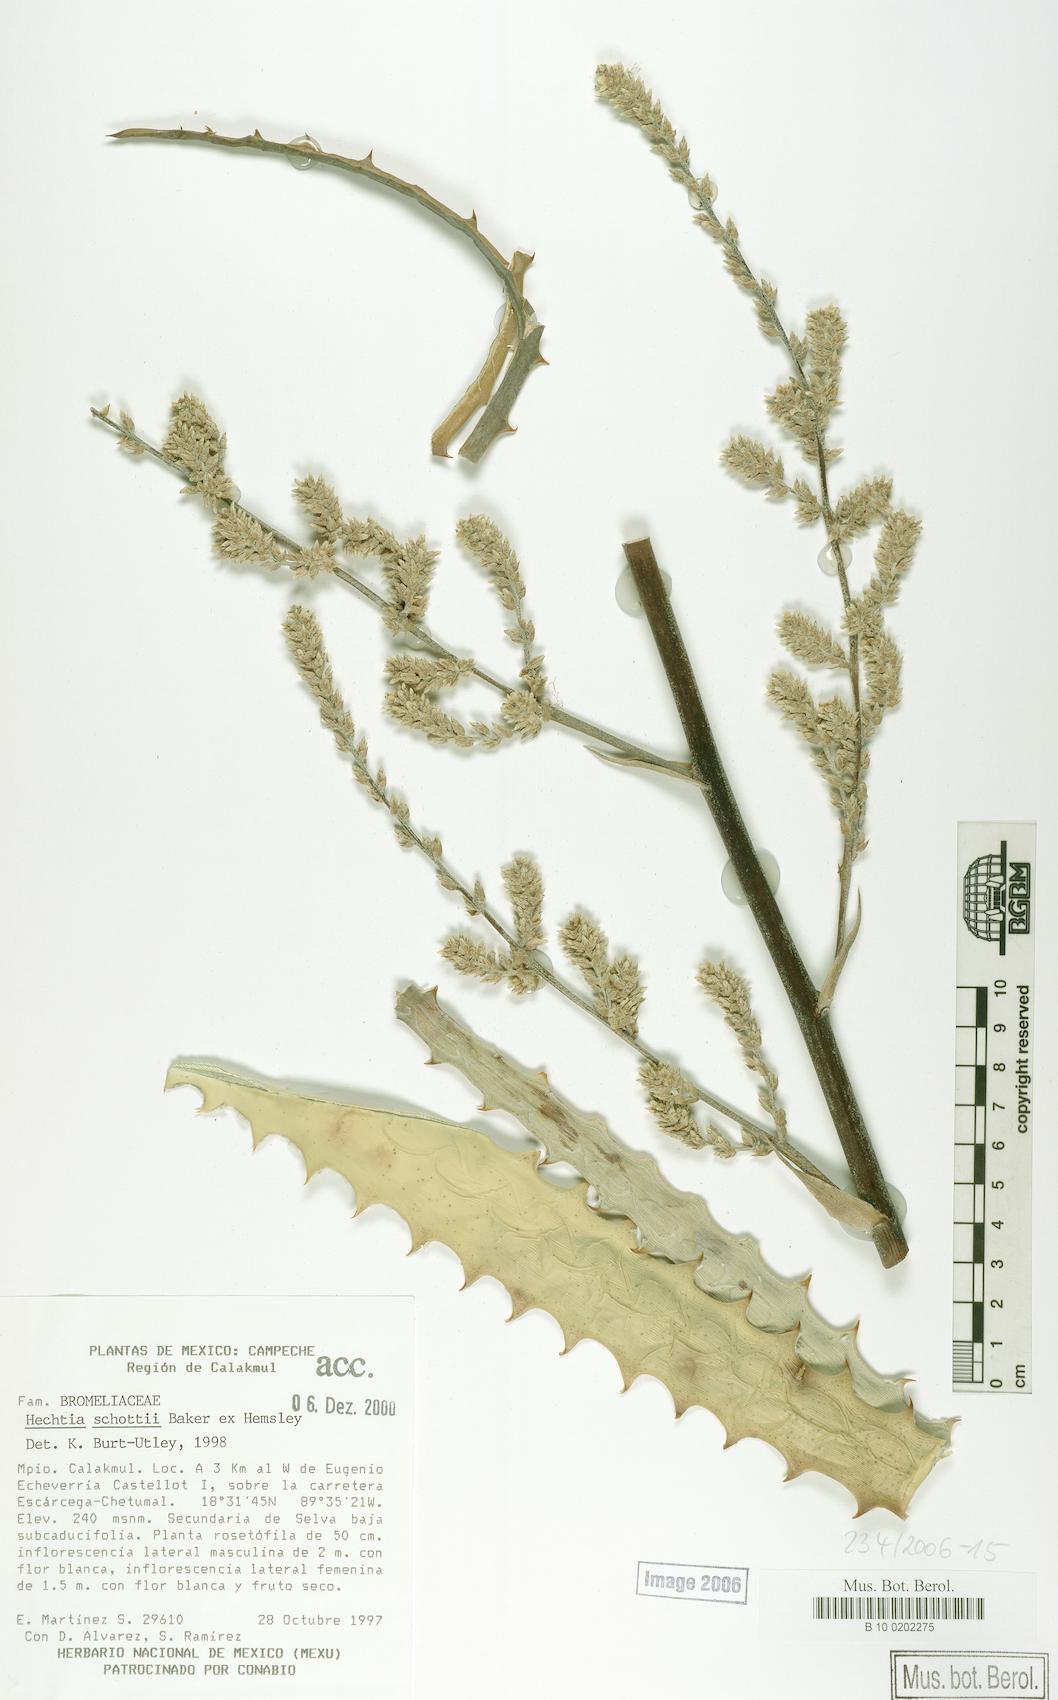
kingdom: Plantae
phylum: Tracheophyta
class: Liliopsida
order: Poales
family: Bromeliaceae
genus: Hechtia
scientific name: Hechtia schottii
